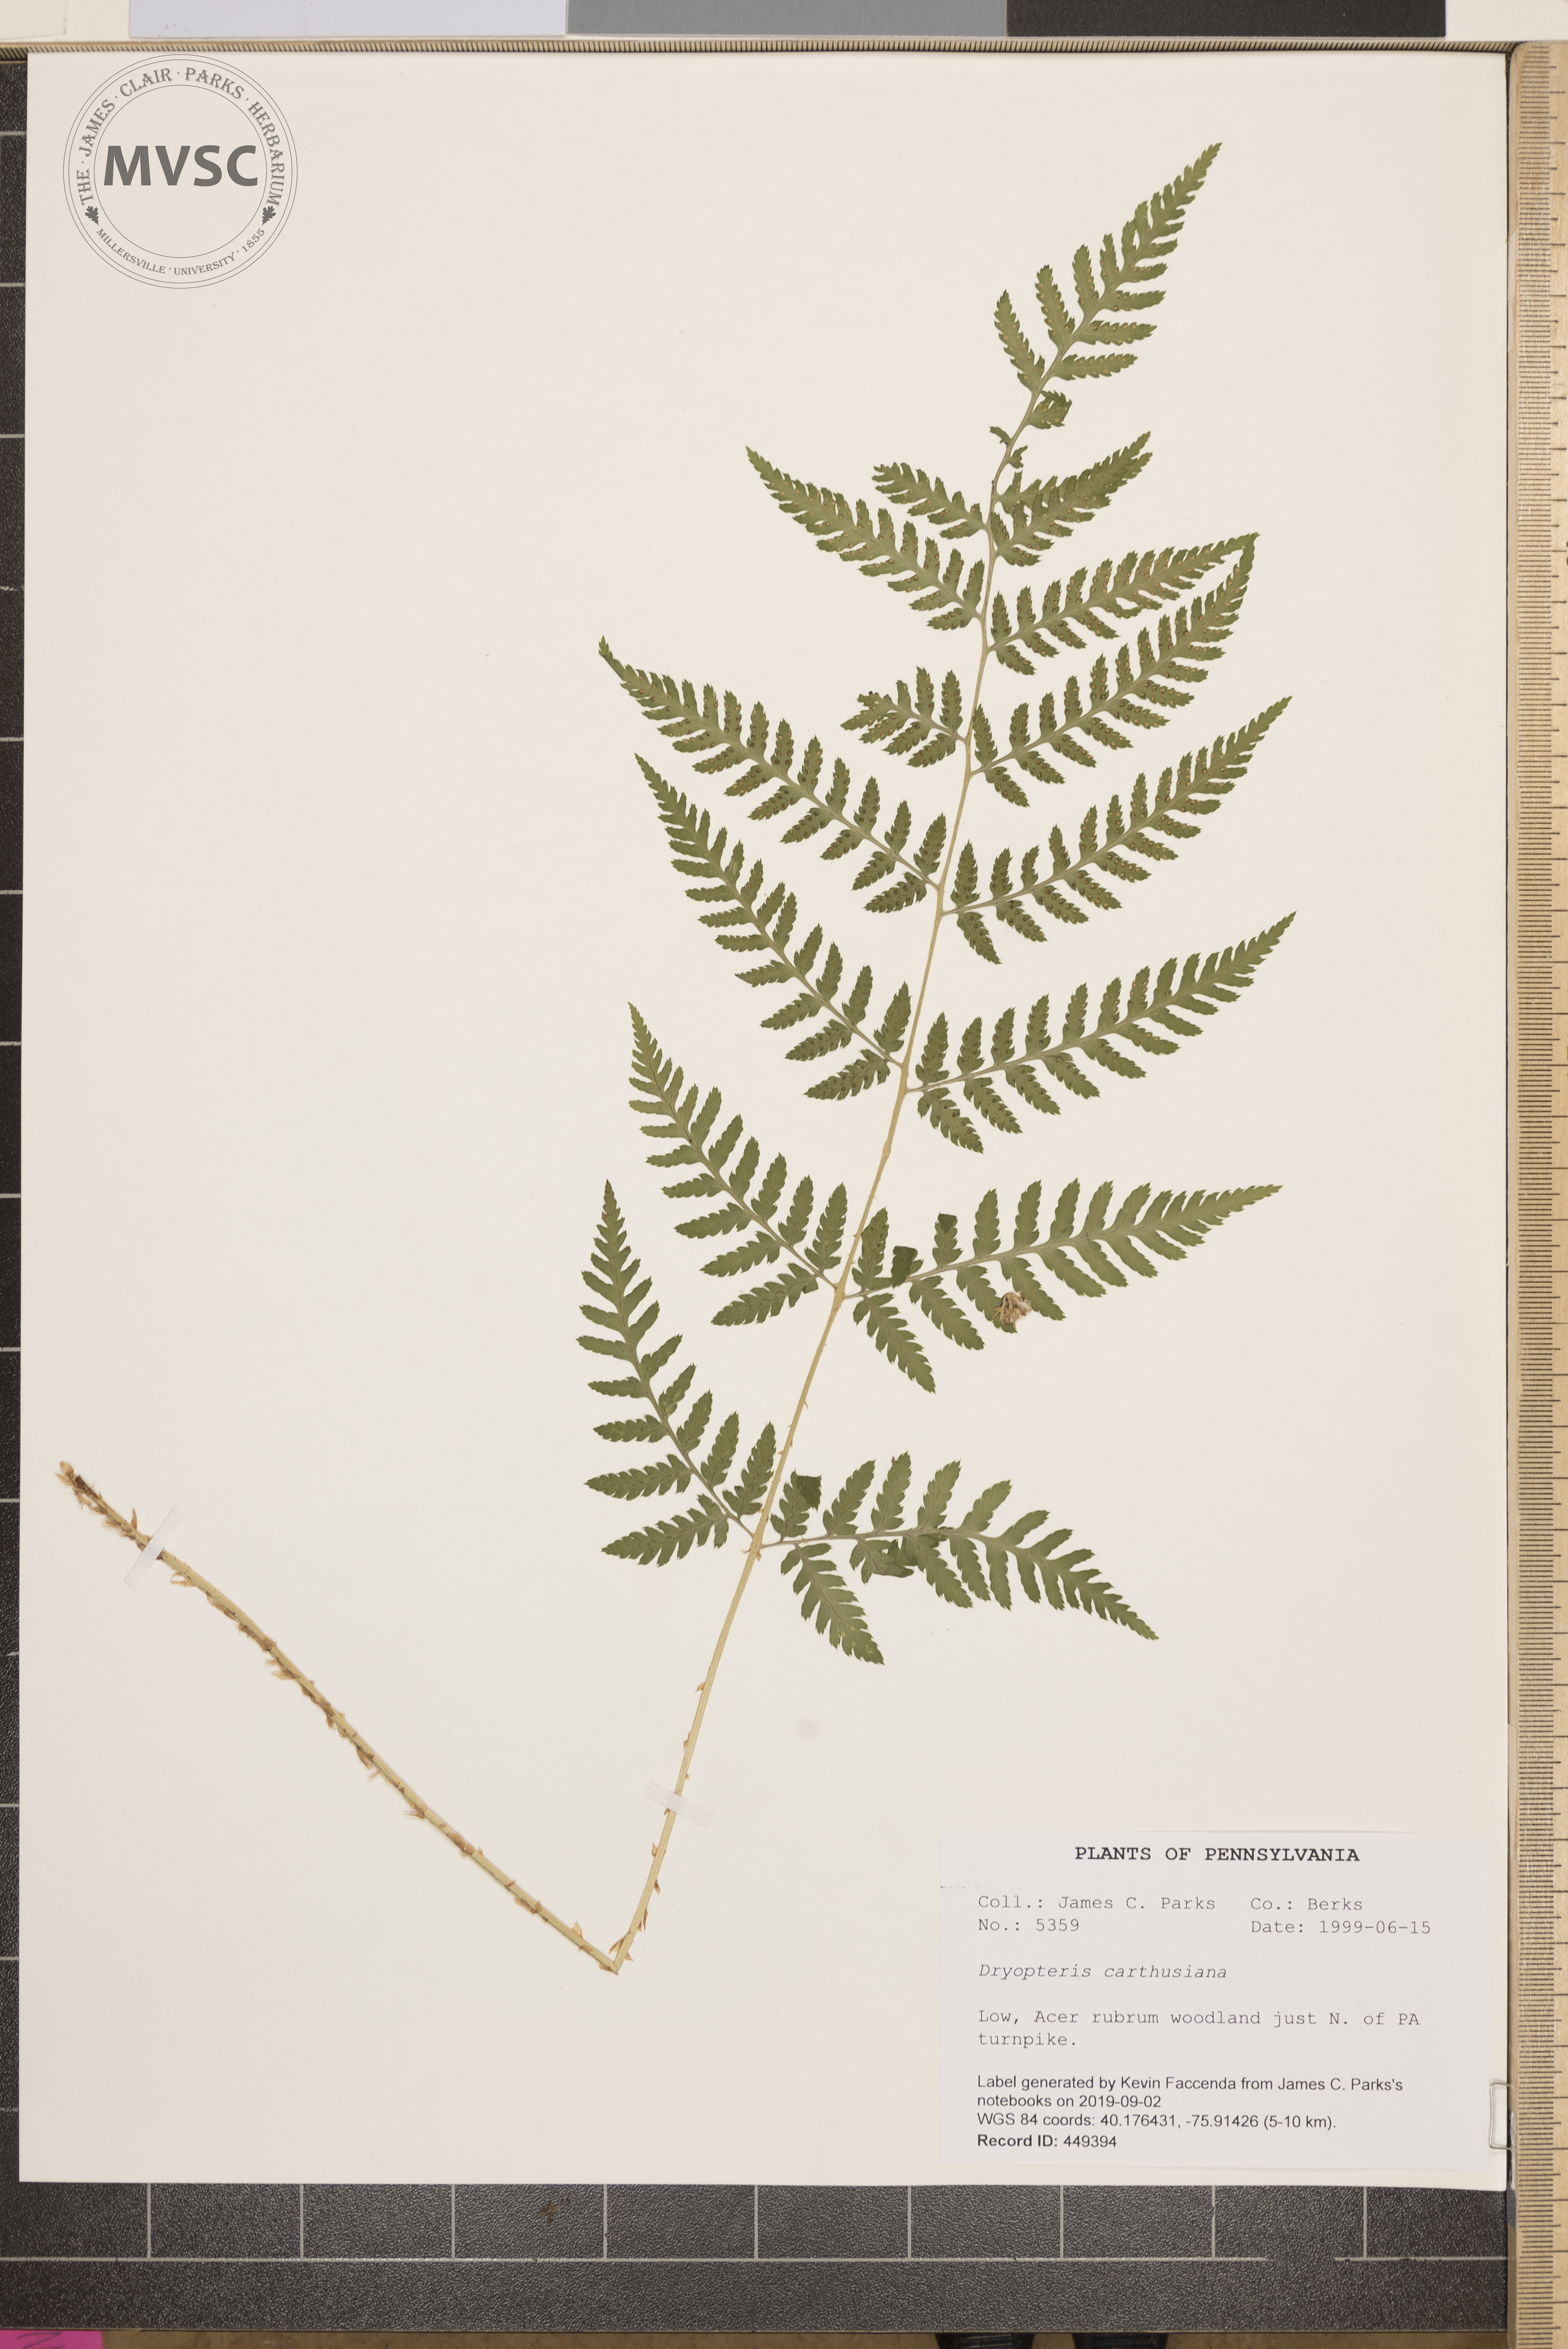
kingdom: Plantae
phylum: Tracheophyta
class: Polypodiopsida
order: Polypodiales
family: Dryopteridaceae
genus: Dryopteris
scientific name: Dryopteris carthusiana
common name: Narrow buckler-fern
